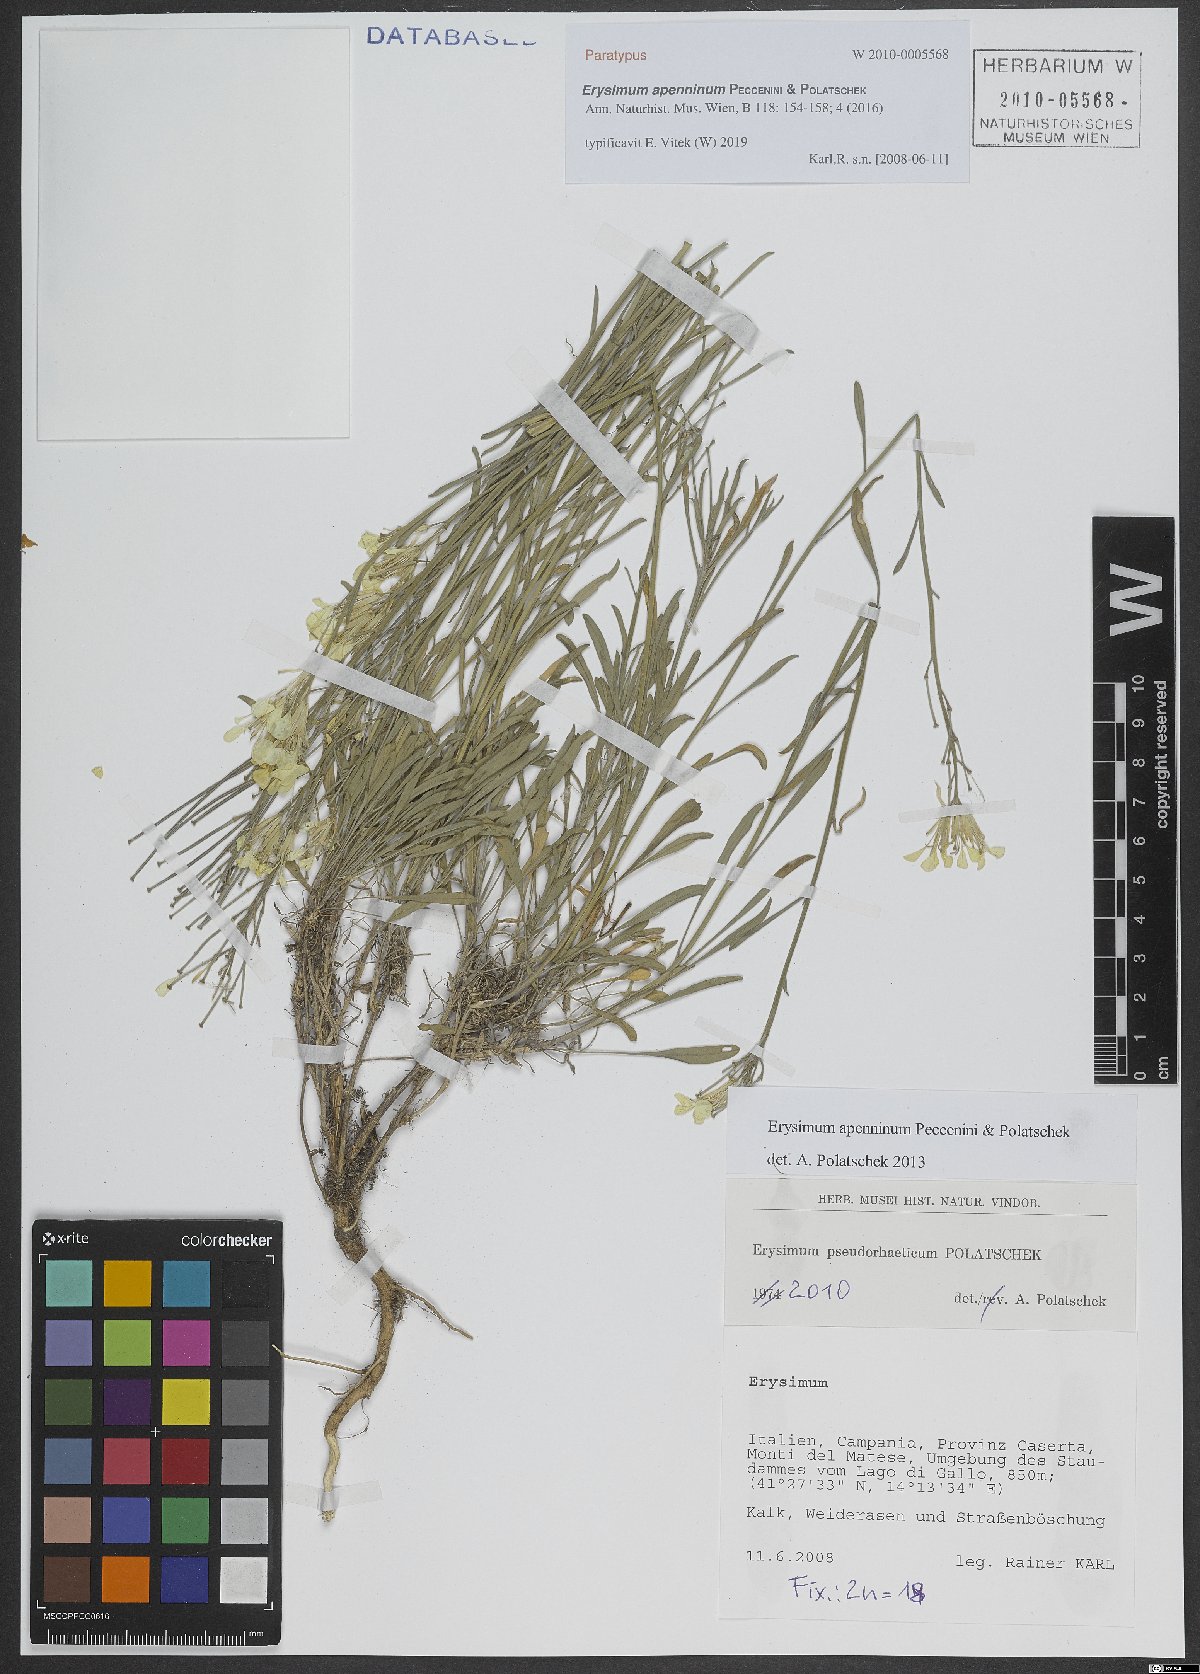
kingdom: Plantae
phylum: Tracheophyta
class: Magnoliopsida
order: Brassicales
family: Brassicaceae
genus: Erysimum
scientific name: Erysimum apenninum
